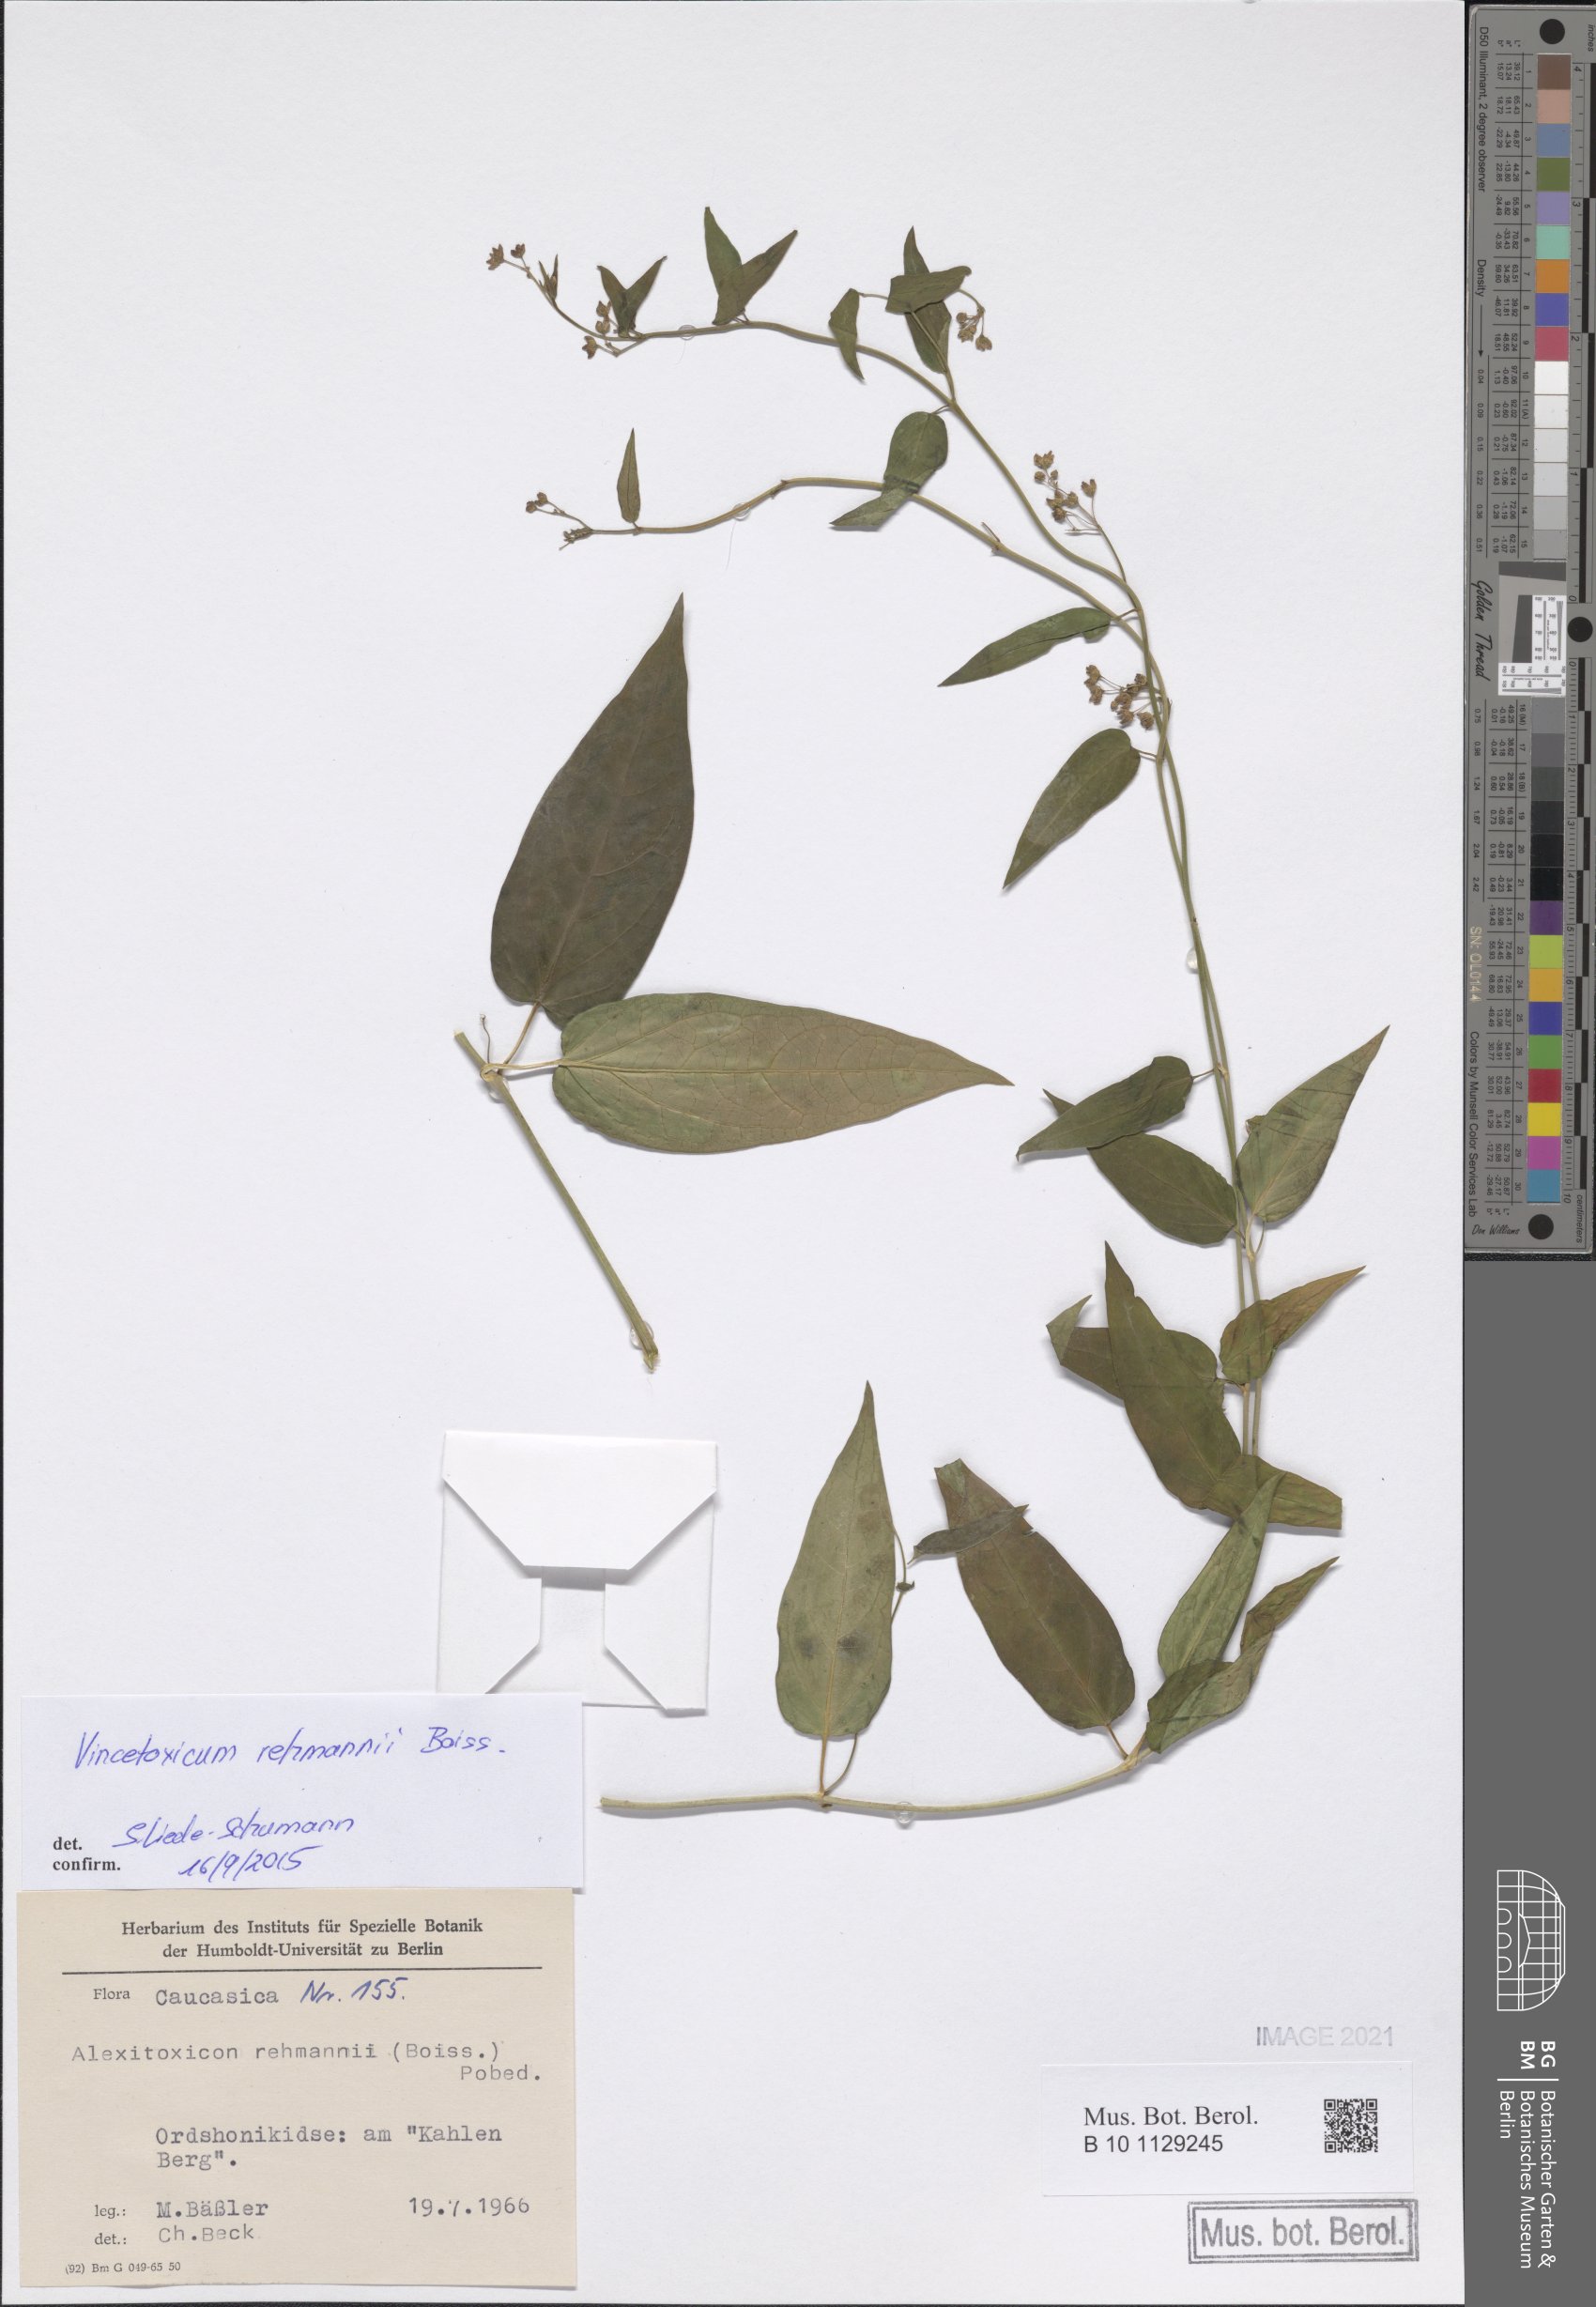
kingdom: Plantae
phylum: Tracheophyta
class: Magnoliopsida
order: Gentianales
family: Apocynaceae
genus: Vincetoxicum
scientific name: Vincetoxicum rehmannii
